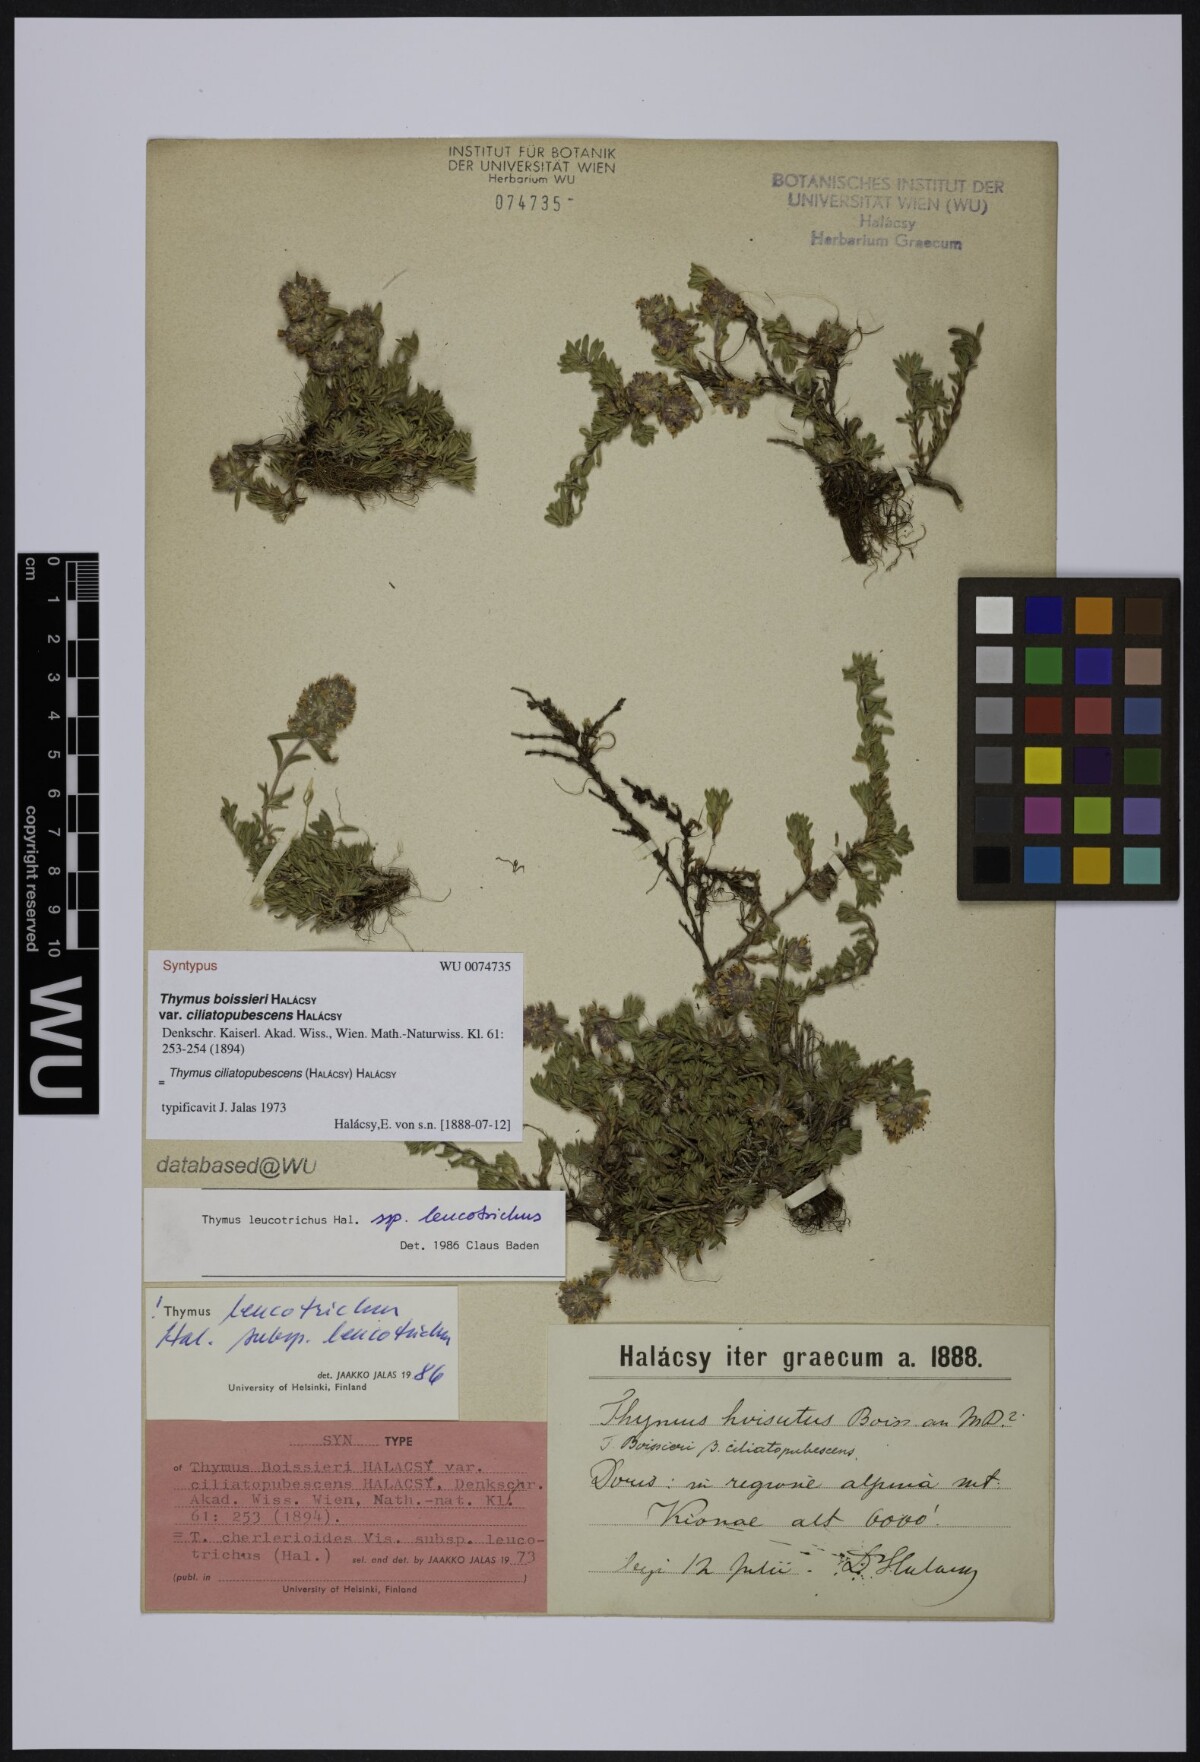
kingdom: Plantae
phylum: Tracheophyta
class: Magnoliopsida
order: Lamiales
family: Lamiaceae
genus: Thymus
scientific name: Thymus boissieri
